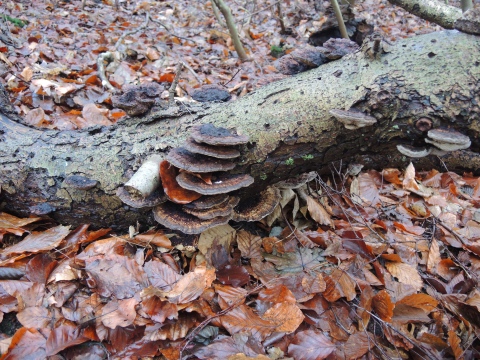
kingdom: Fungi
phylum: Basidiomycota
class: Agaricomycetes
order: Polyporales
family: Polyporaceae
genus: Daedaleopsis
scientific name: Daedaleopsis confragosa
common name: rødmende læderporesvamp
